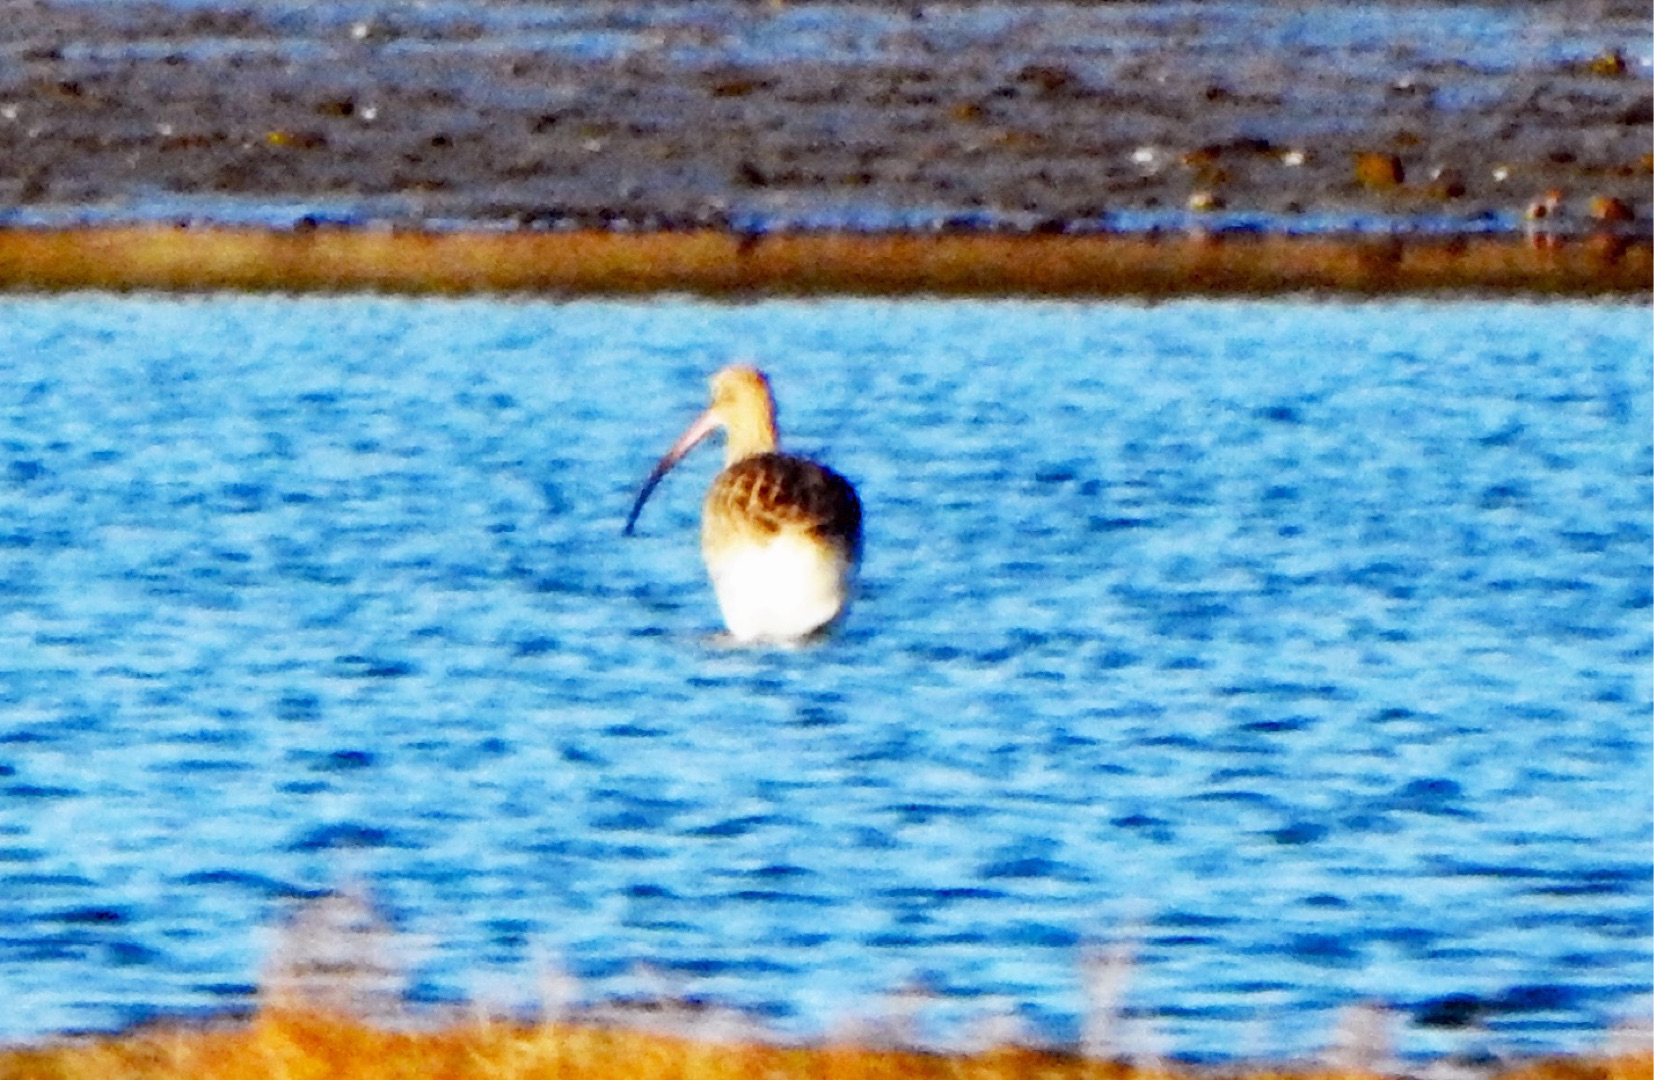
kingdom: Animalia
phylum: Chordata
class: Aves
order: Charadriiformes
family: Scolopacidae
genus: Numenius
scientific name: Numenius arquata
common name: Storspove
